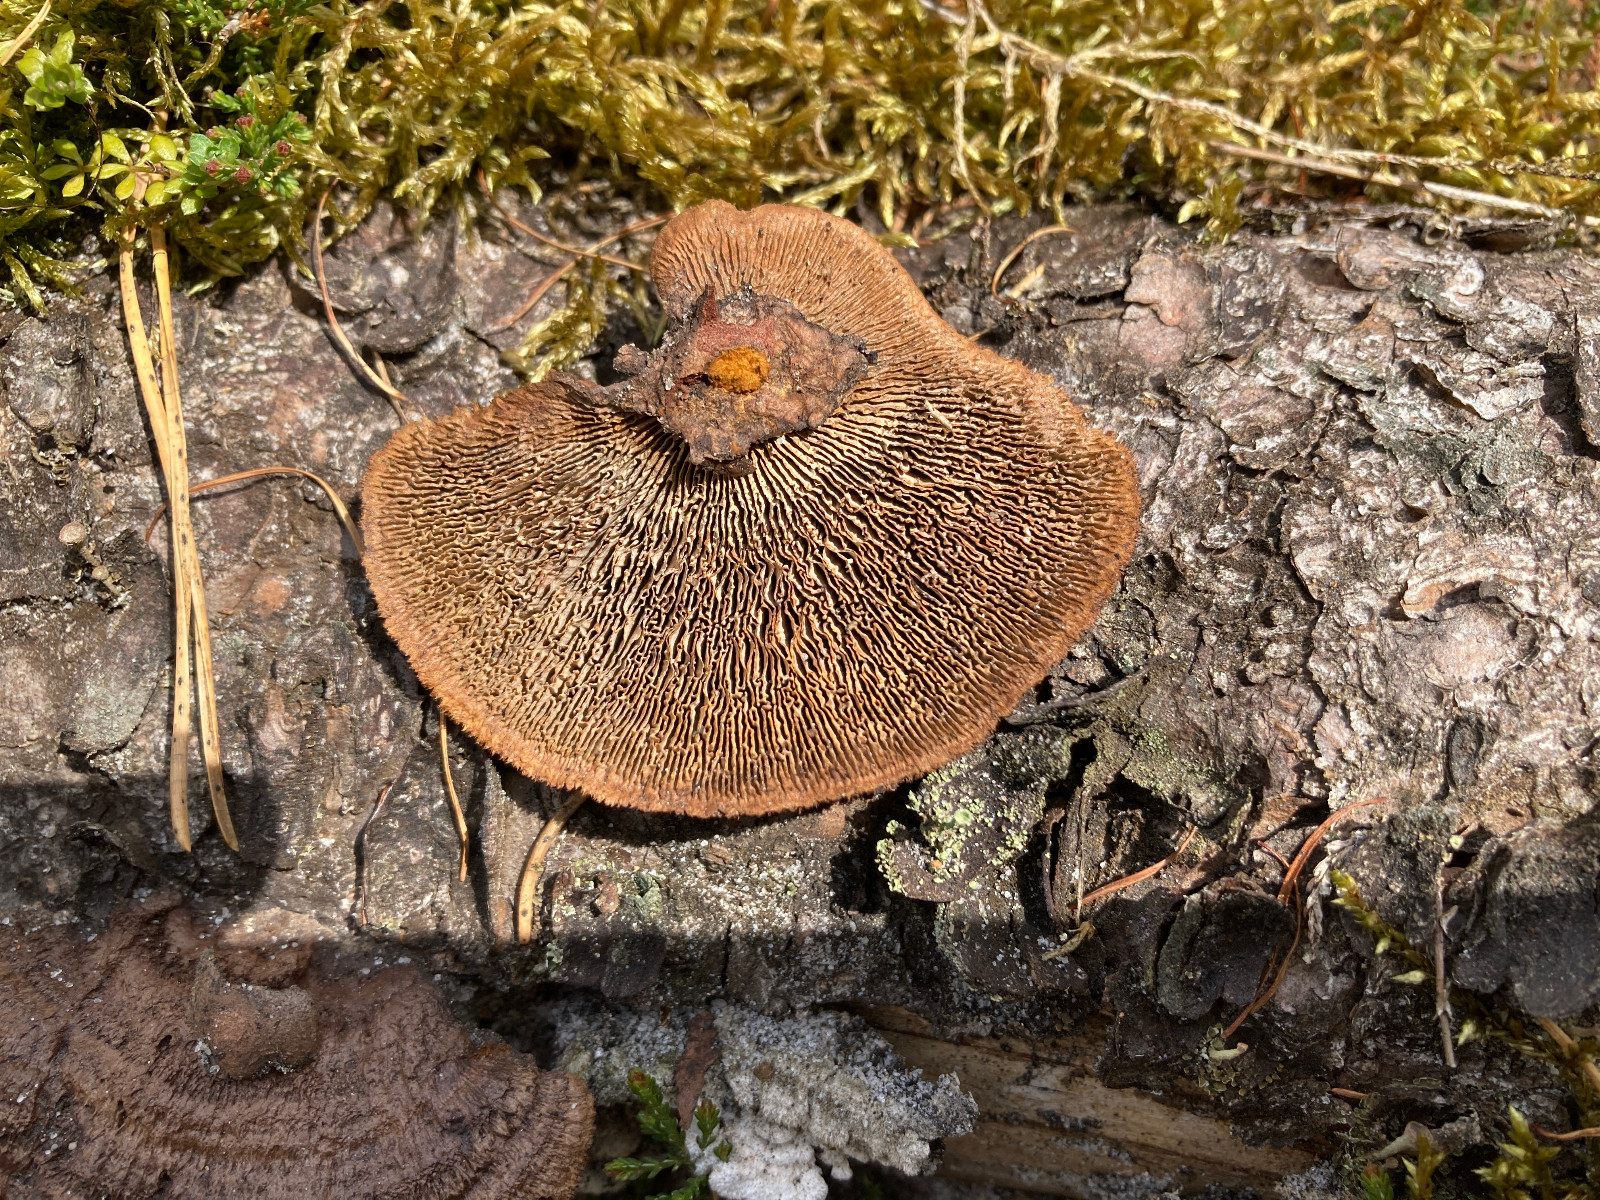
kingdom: Fungi
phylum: Basidiomycota
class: Agaricomycetes
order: Gloeophyllales
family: Gloeophyllaceae
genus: Gloeophyllum
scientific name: Gloeophyllum sepiarium
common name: fyrre-korkhat
